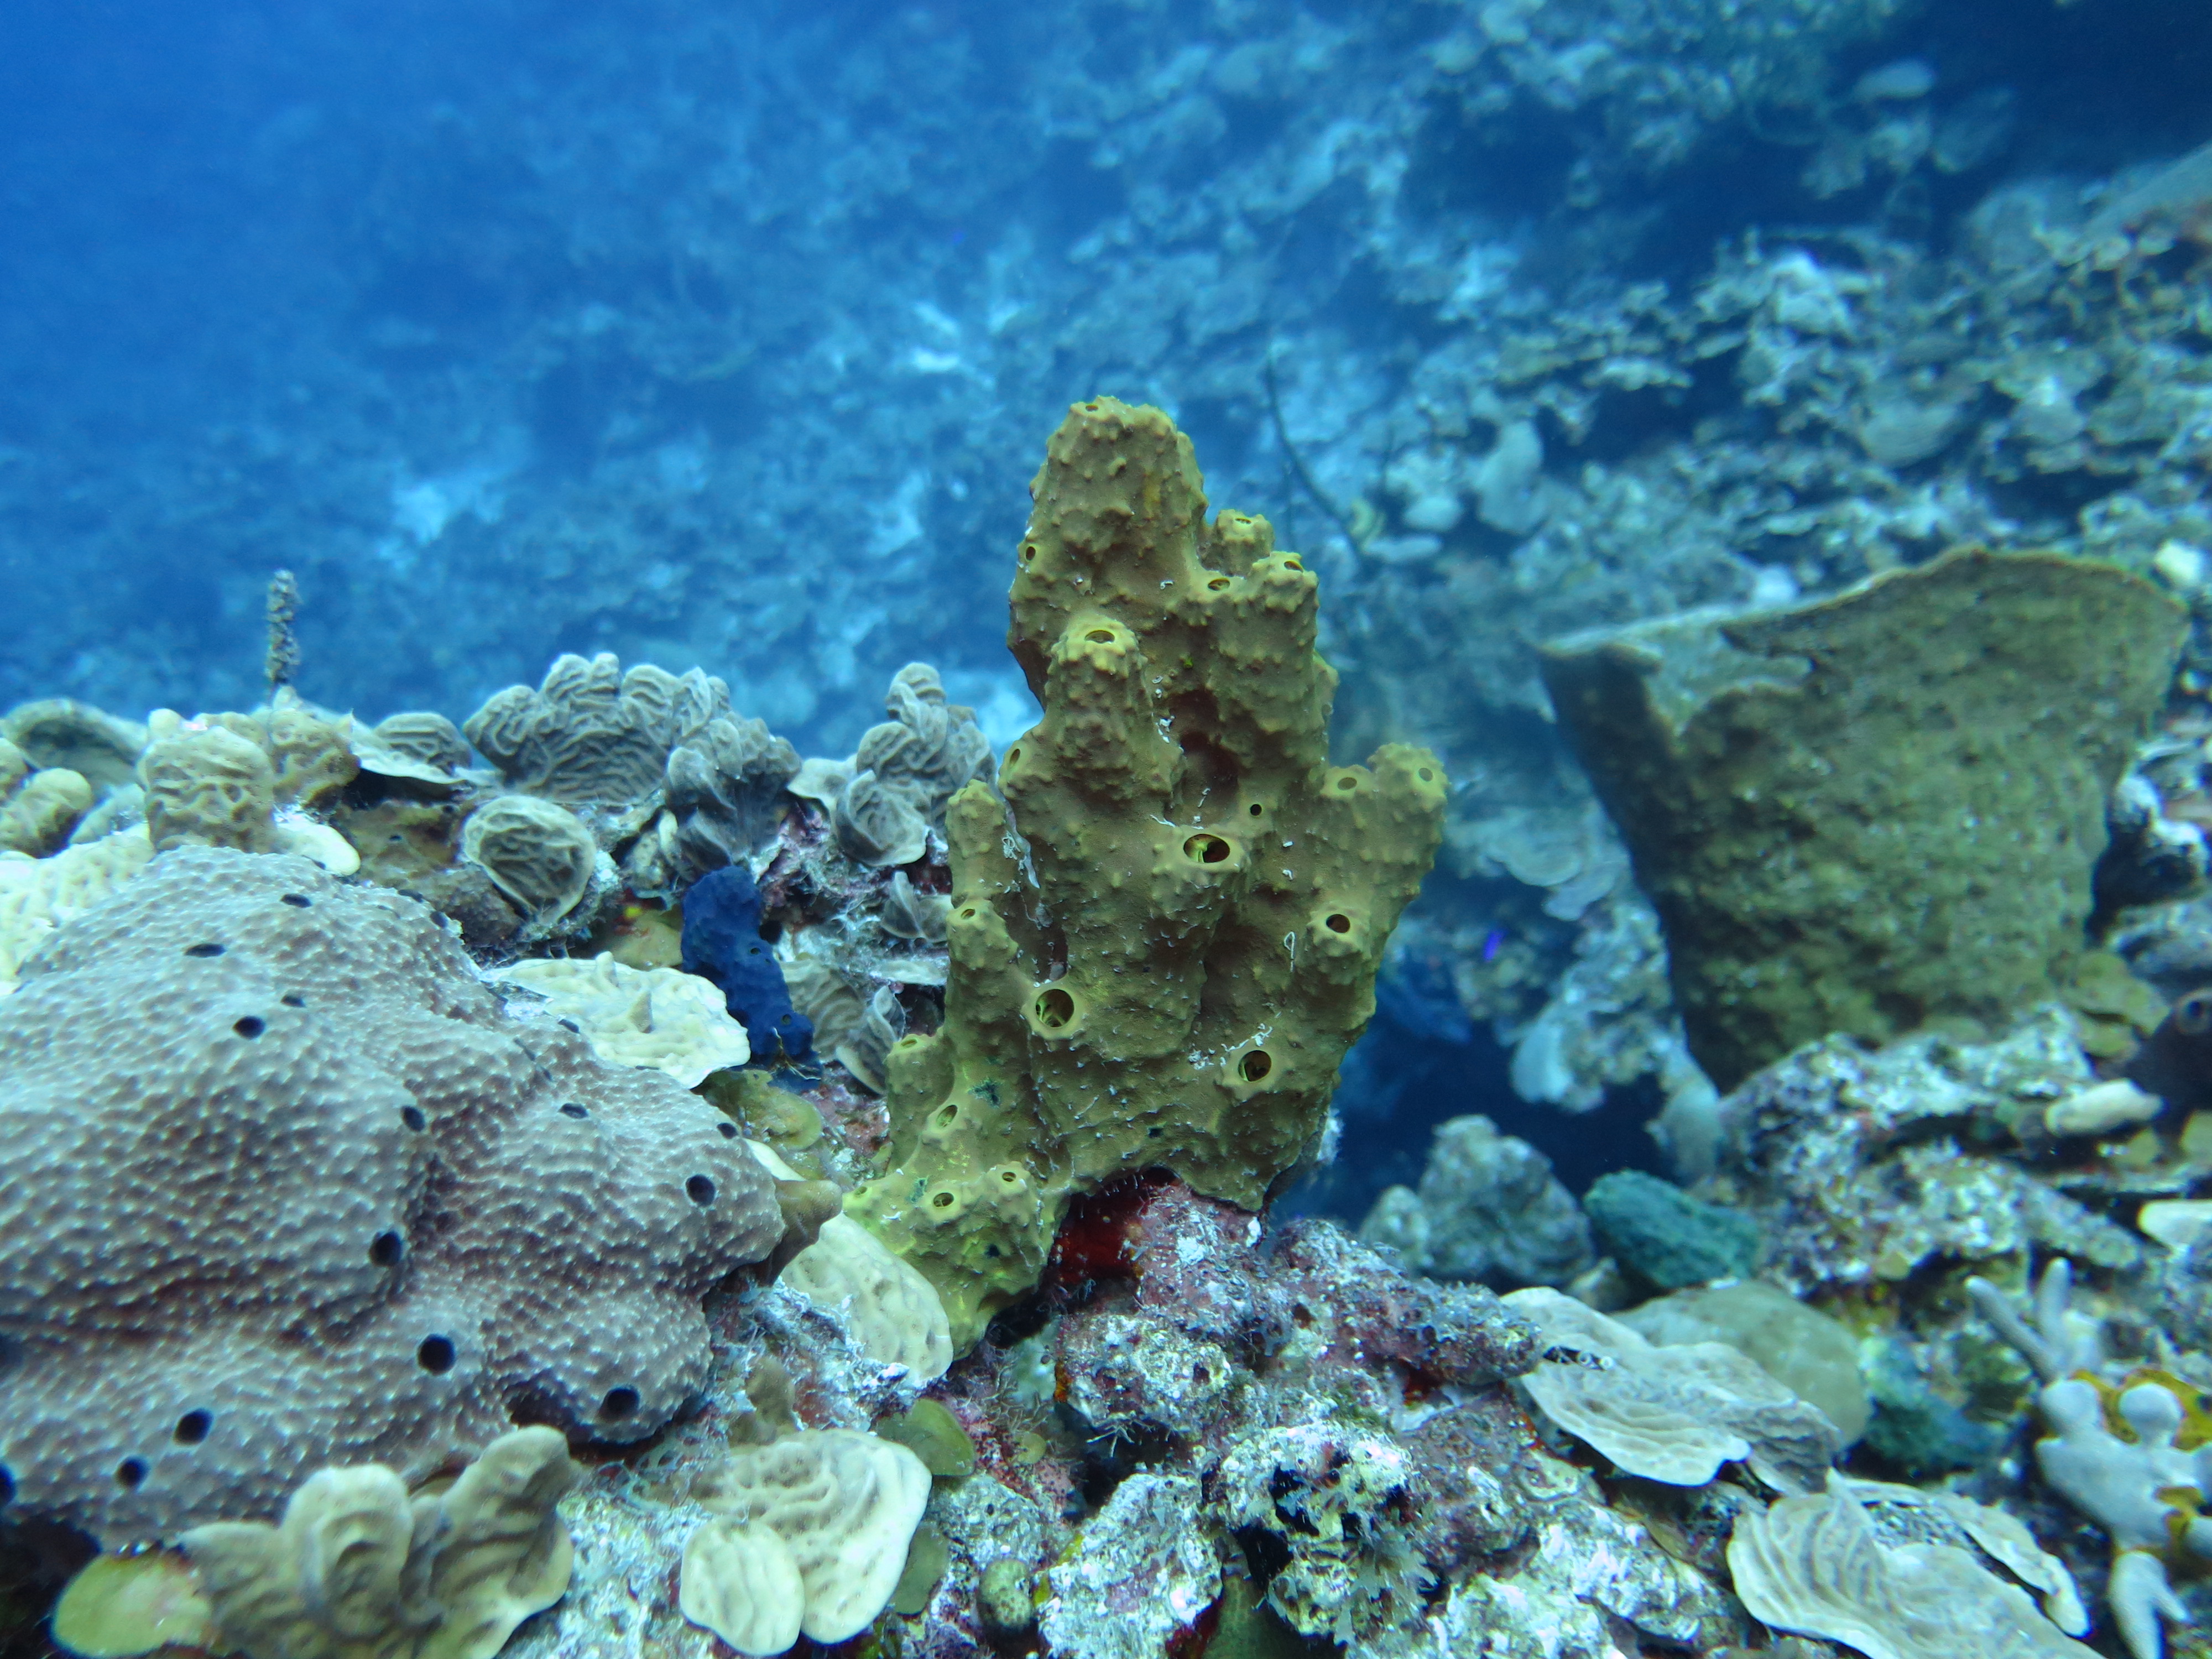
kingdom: Animalia
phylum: Porifera
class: Demospongiae
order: Verongiida
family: Aplysinidae
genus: Aiolochroia
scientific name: Aiolochroia crassa
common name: Branching tube sponge
